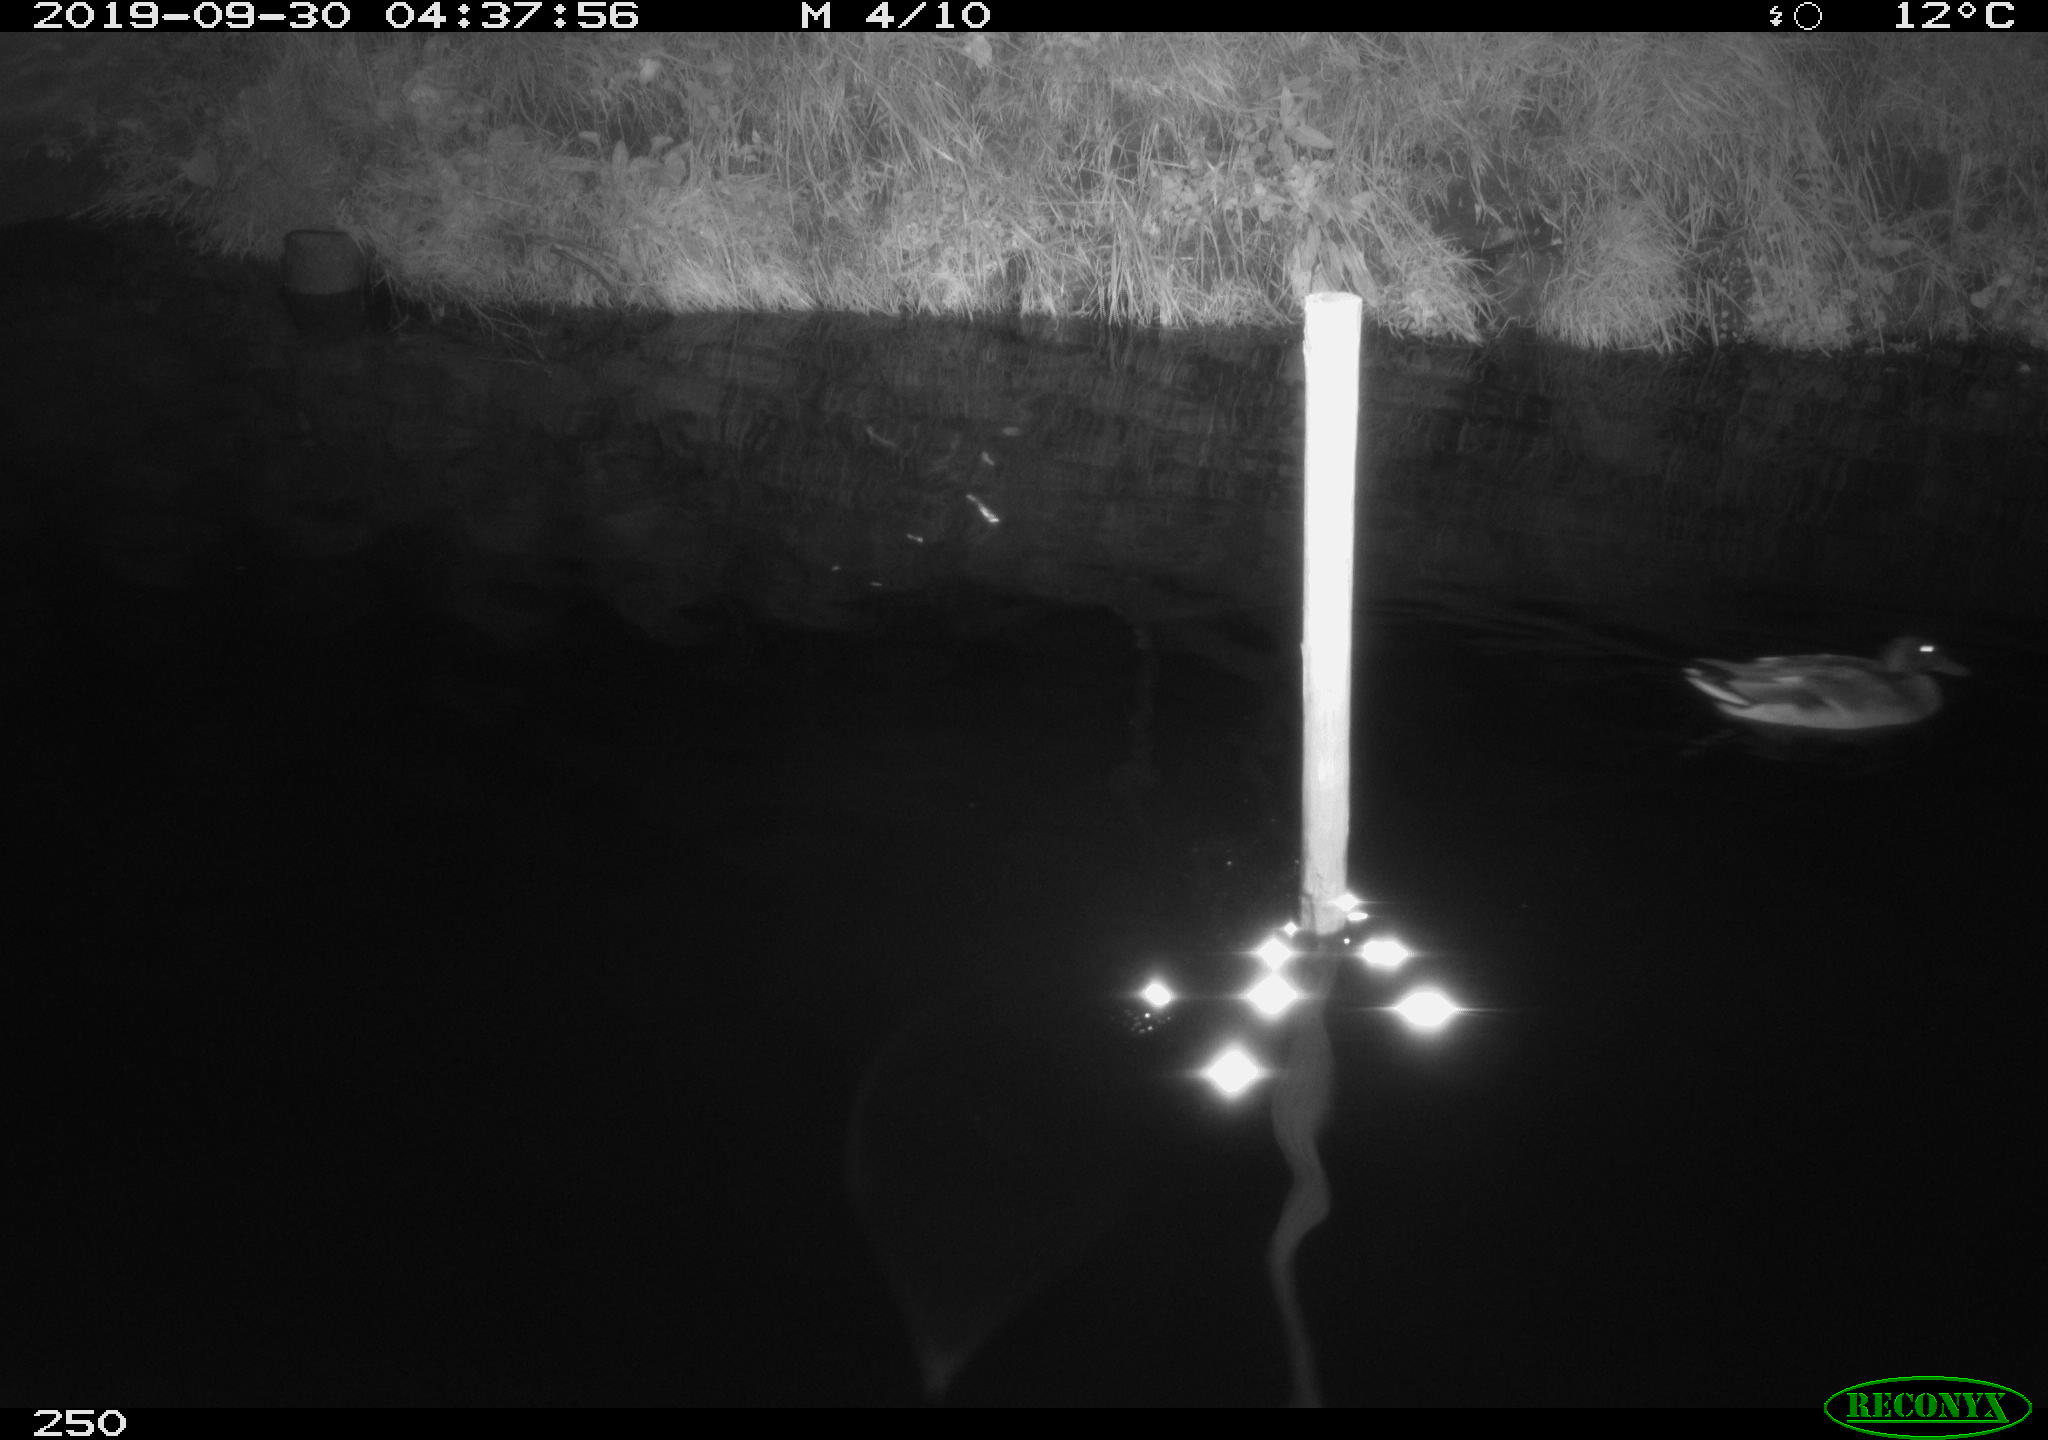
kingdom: Animalia
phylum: Chordata
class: Aves
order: Anseriformes
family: Anatidae
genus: Anas
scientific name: Anas platyrhynchos
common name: Mallard
